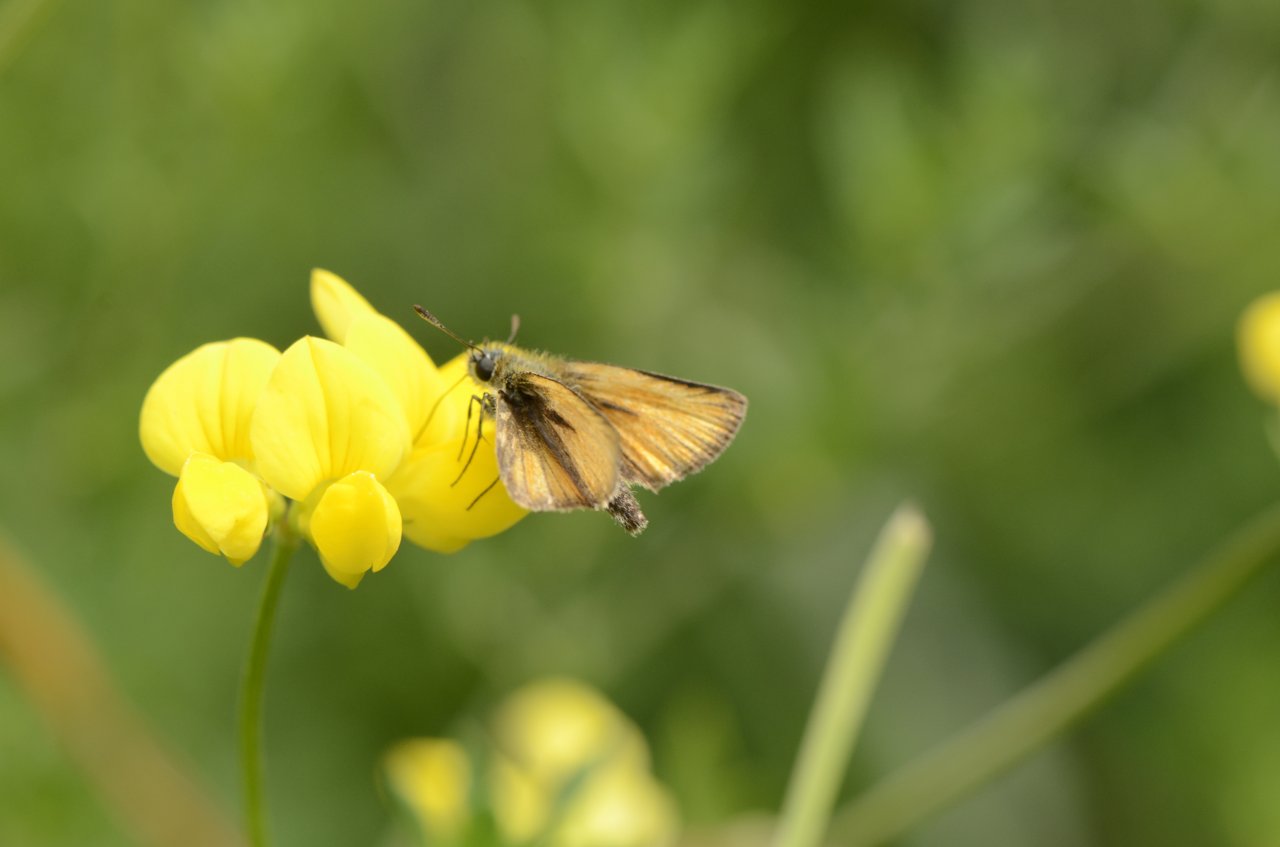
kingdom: Animalia
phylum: Arthropoda
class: Insecta
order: Lepidoptera
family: Hesperiidae
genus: Thymelicus
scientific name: Thymelicus lineola
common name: European Skipper
